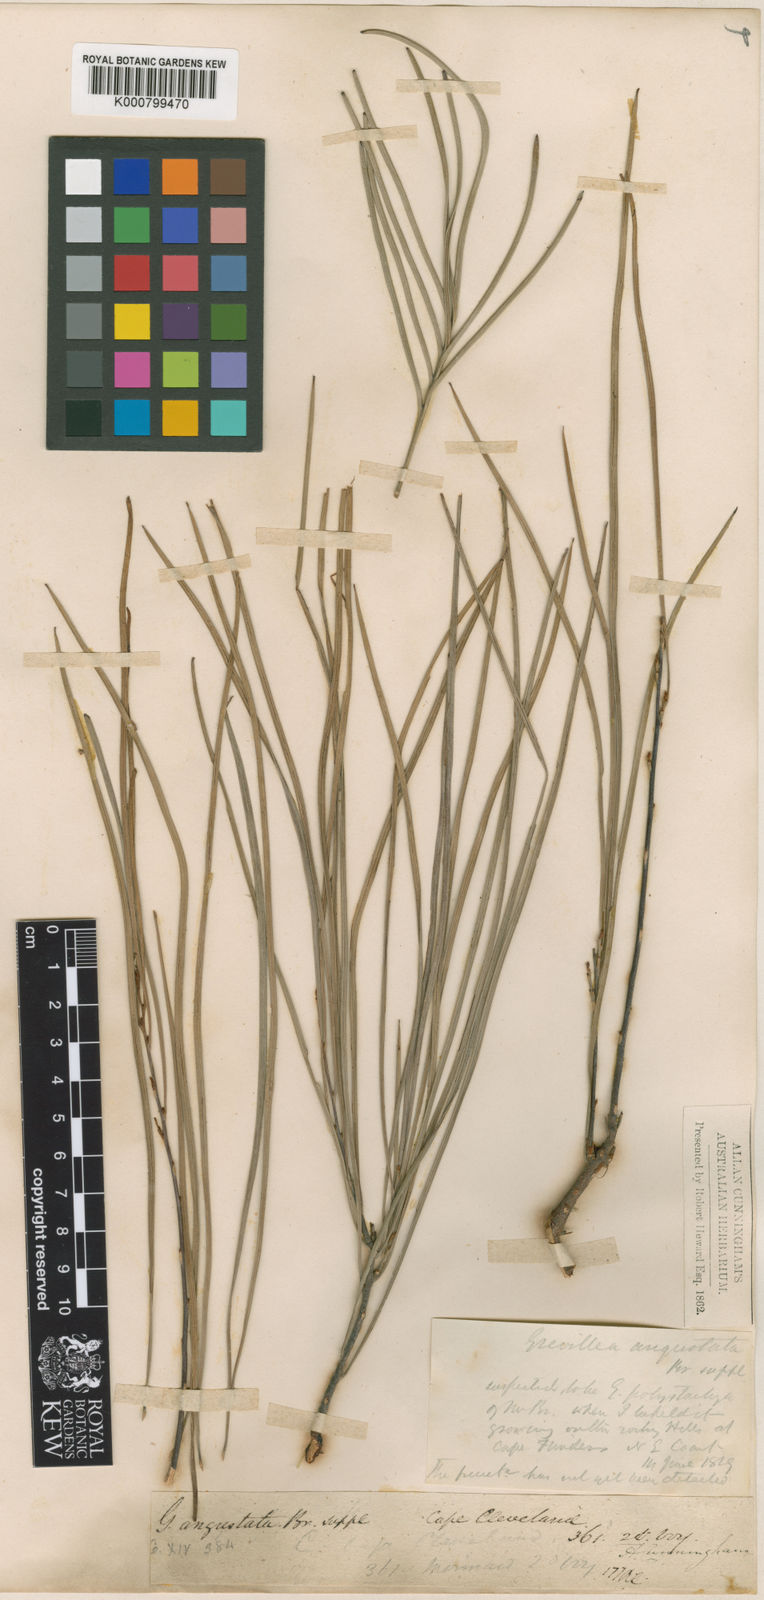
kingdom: Plantae
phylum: Tracheophyta
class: Magnoliopsida
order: Proteales
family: Proteaceae
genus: Grevillea
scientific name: Grevillea parallela
